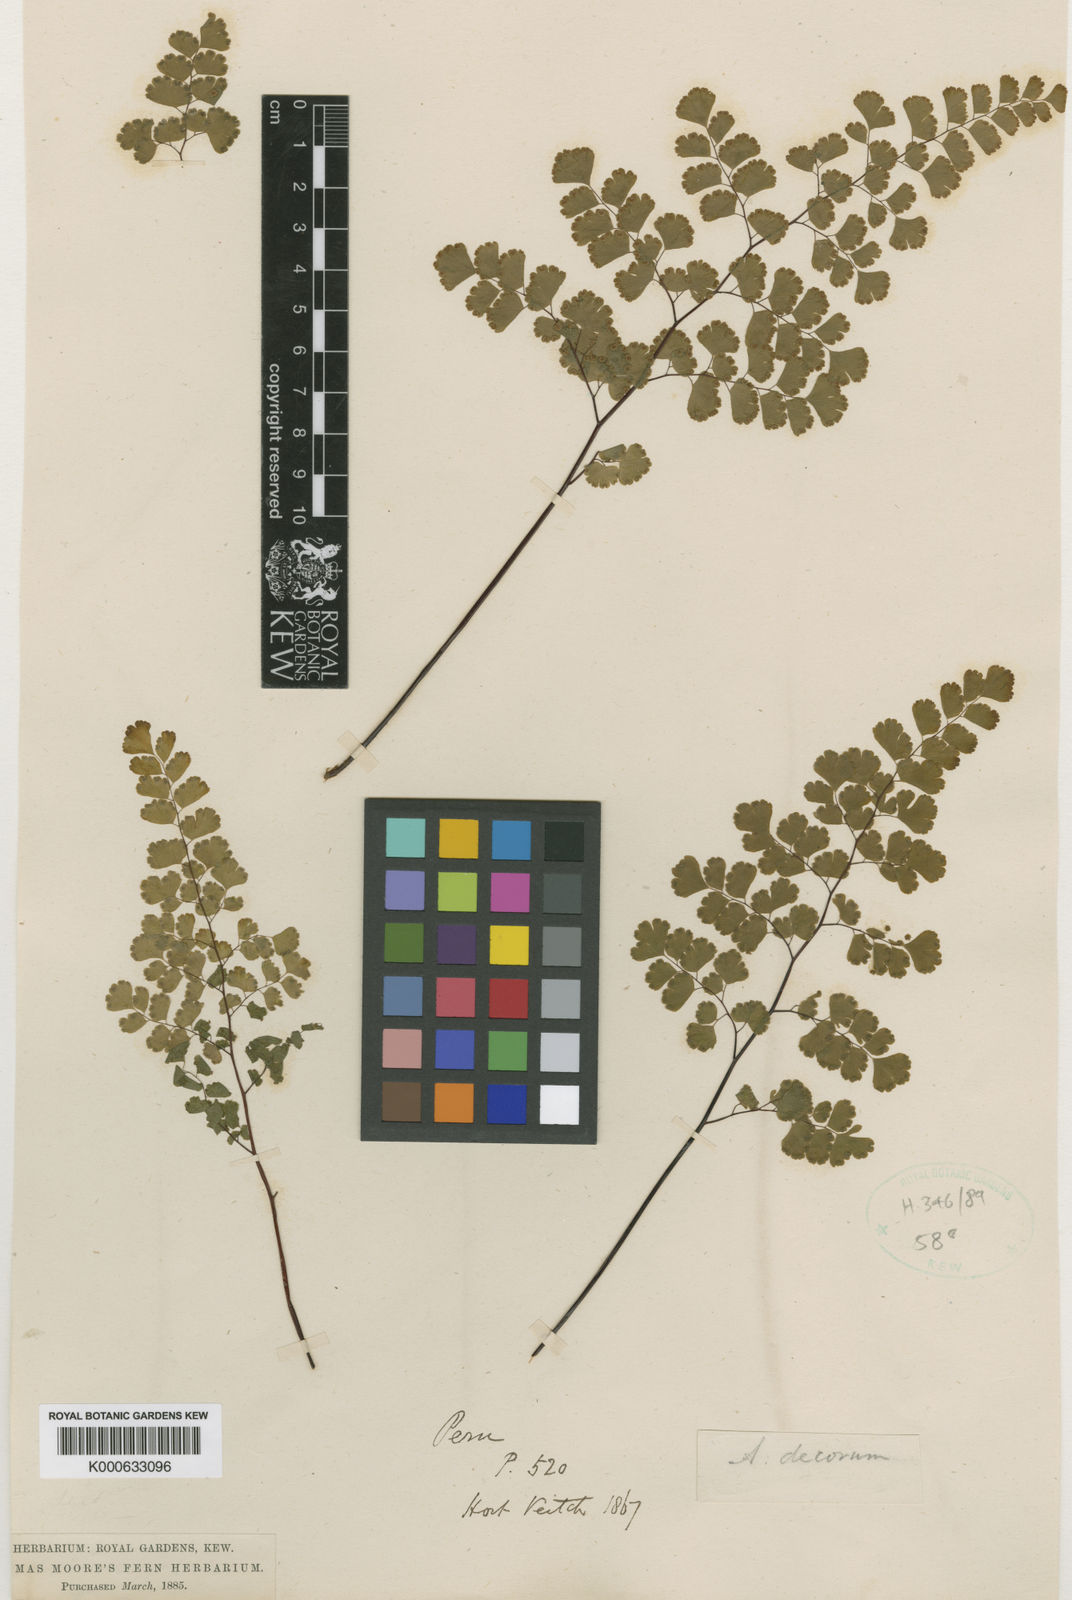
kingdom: Plantae
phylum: Tracheophyta
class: Polypodiopsida
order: Polypodiales
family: Pteridaceae
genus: Adiantum
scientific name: Adiantum raddianum
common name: Delta maidenhair fern
